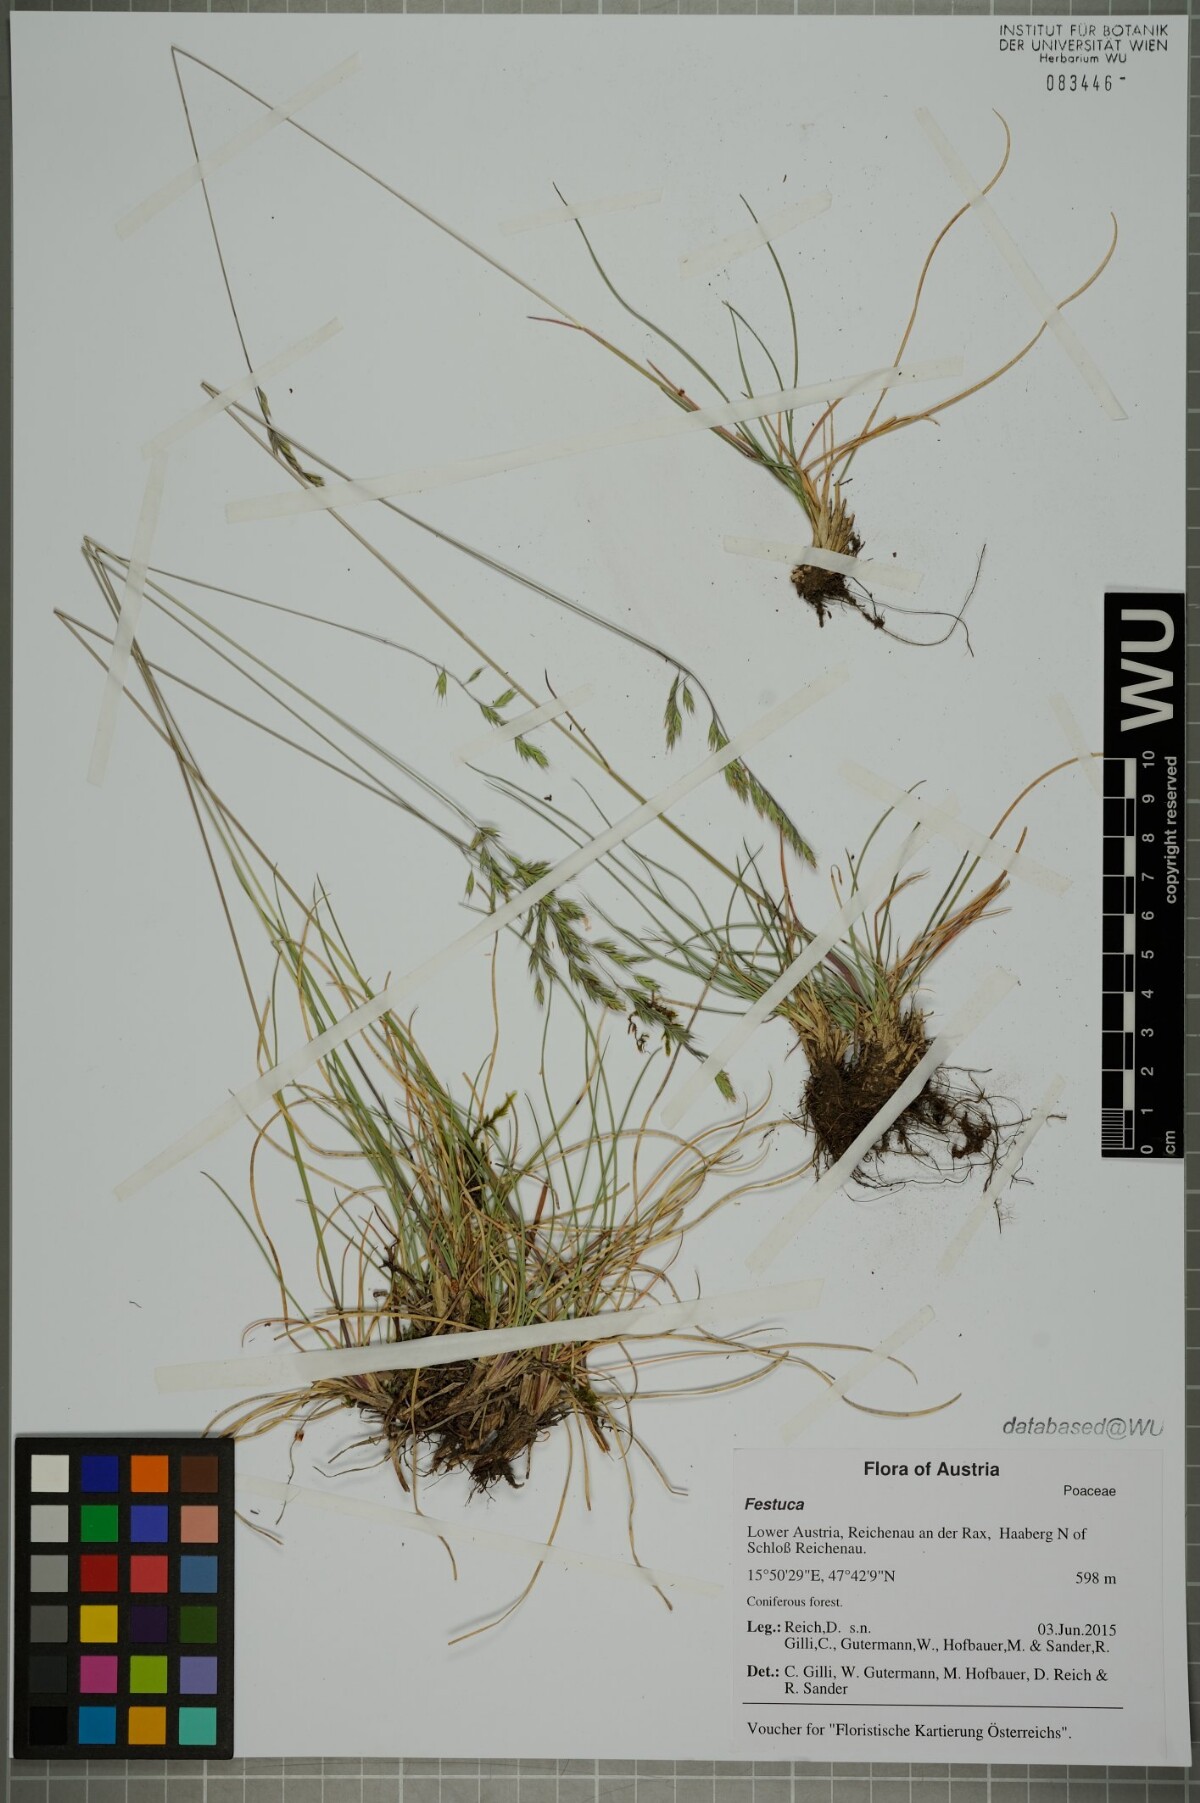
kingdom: Plantae
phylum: Tracheophyta
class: Liliopsida
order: Poales
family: Poaceae
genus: Festuca
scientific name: Festuca
